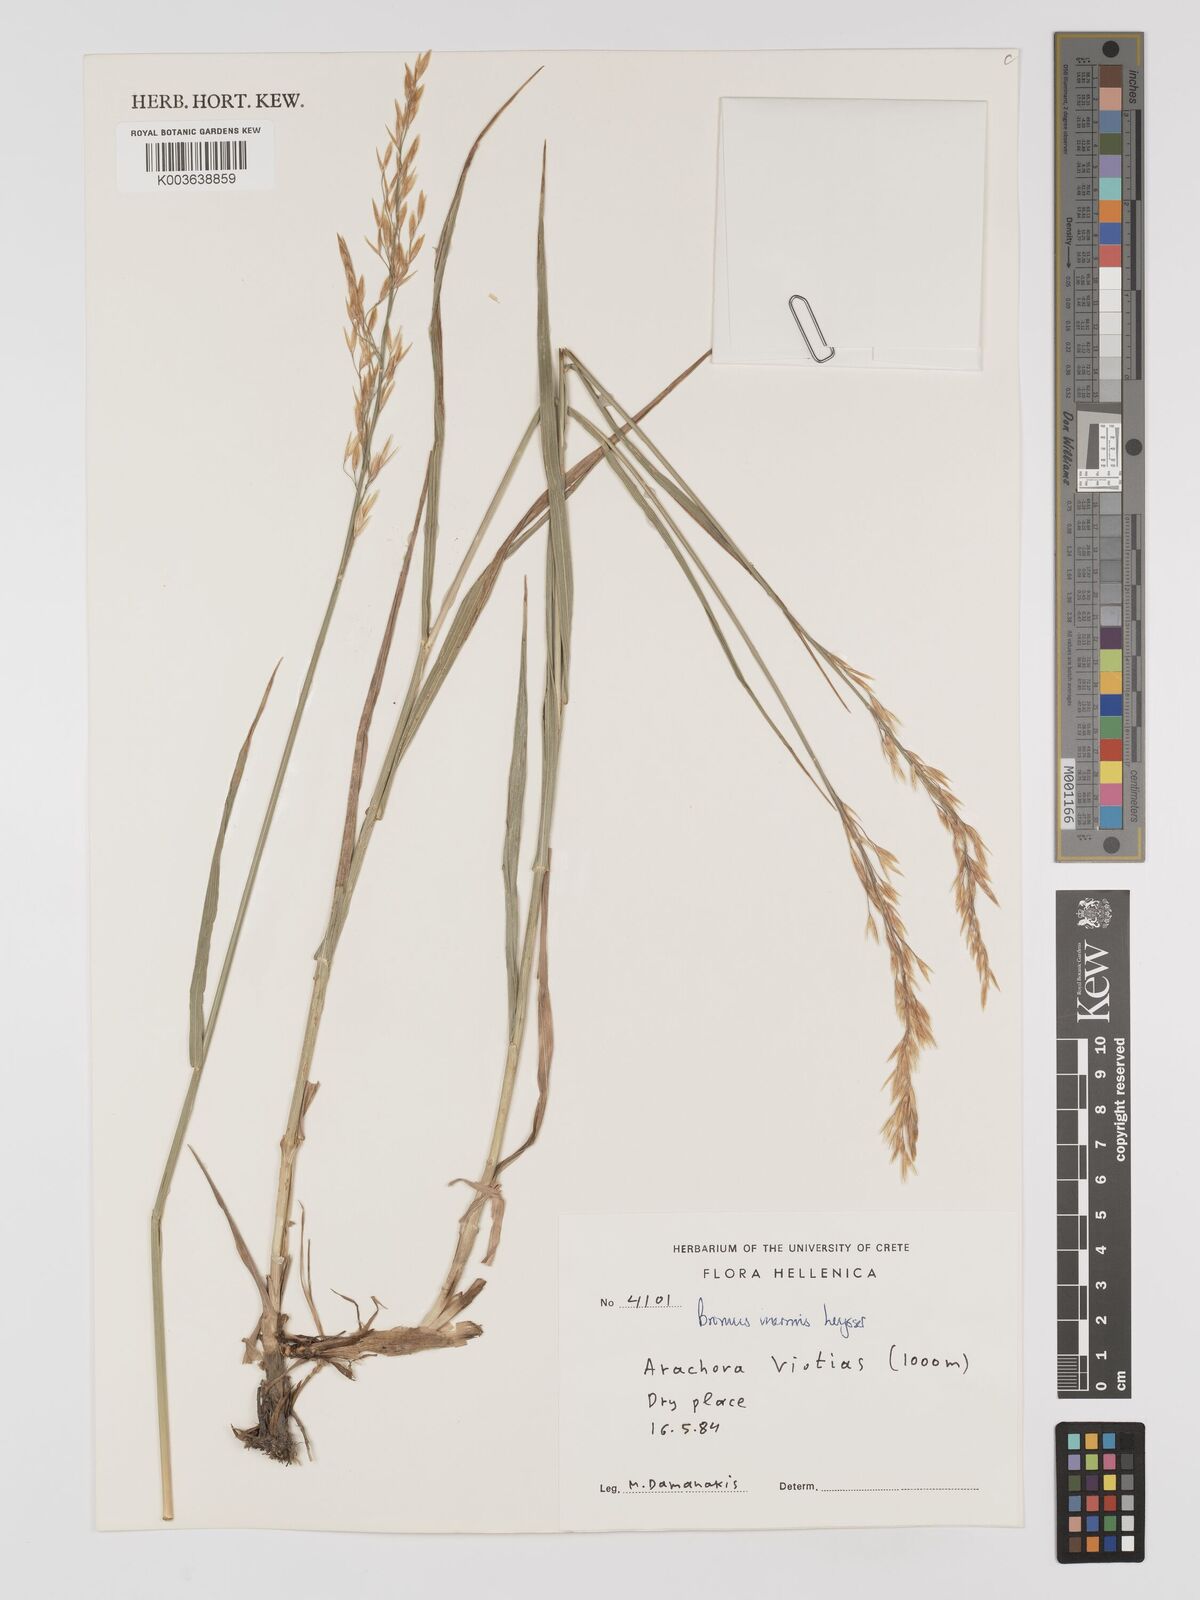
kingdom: Plantae
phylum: Tracheophyta
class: Liliopsida
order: Poales
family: Poaceae
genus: Bromus
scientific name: Bromus inermis
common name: Smooth brome
